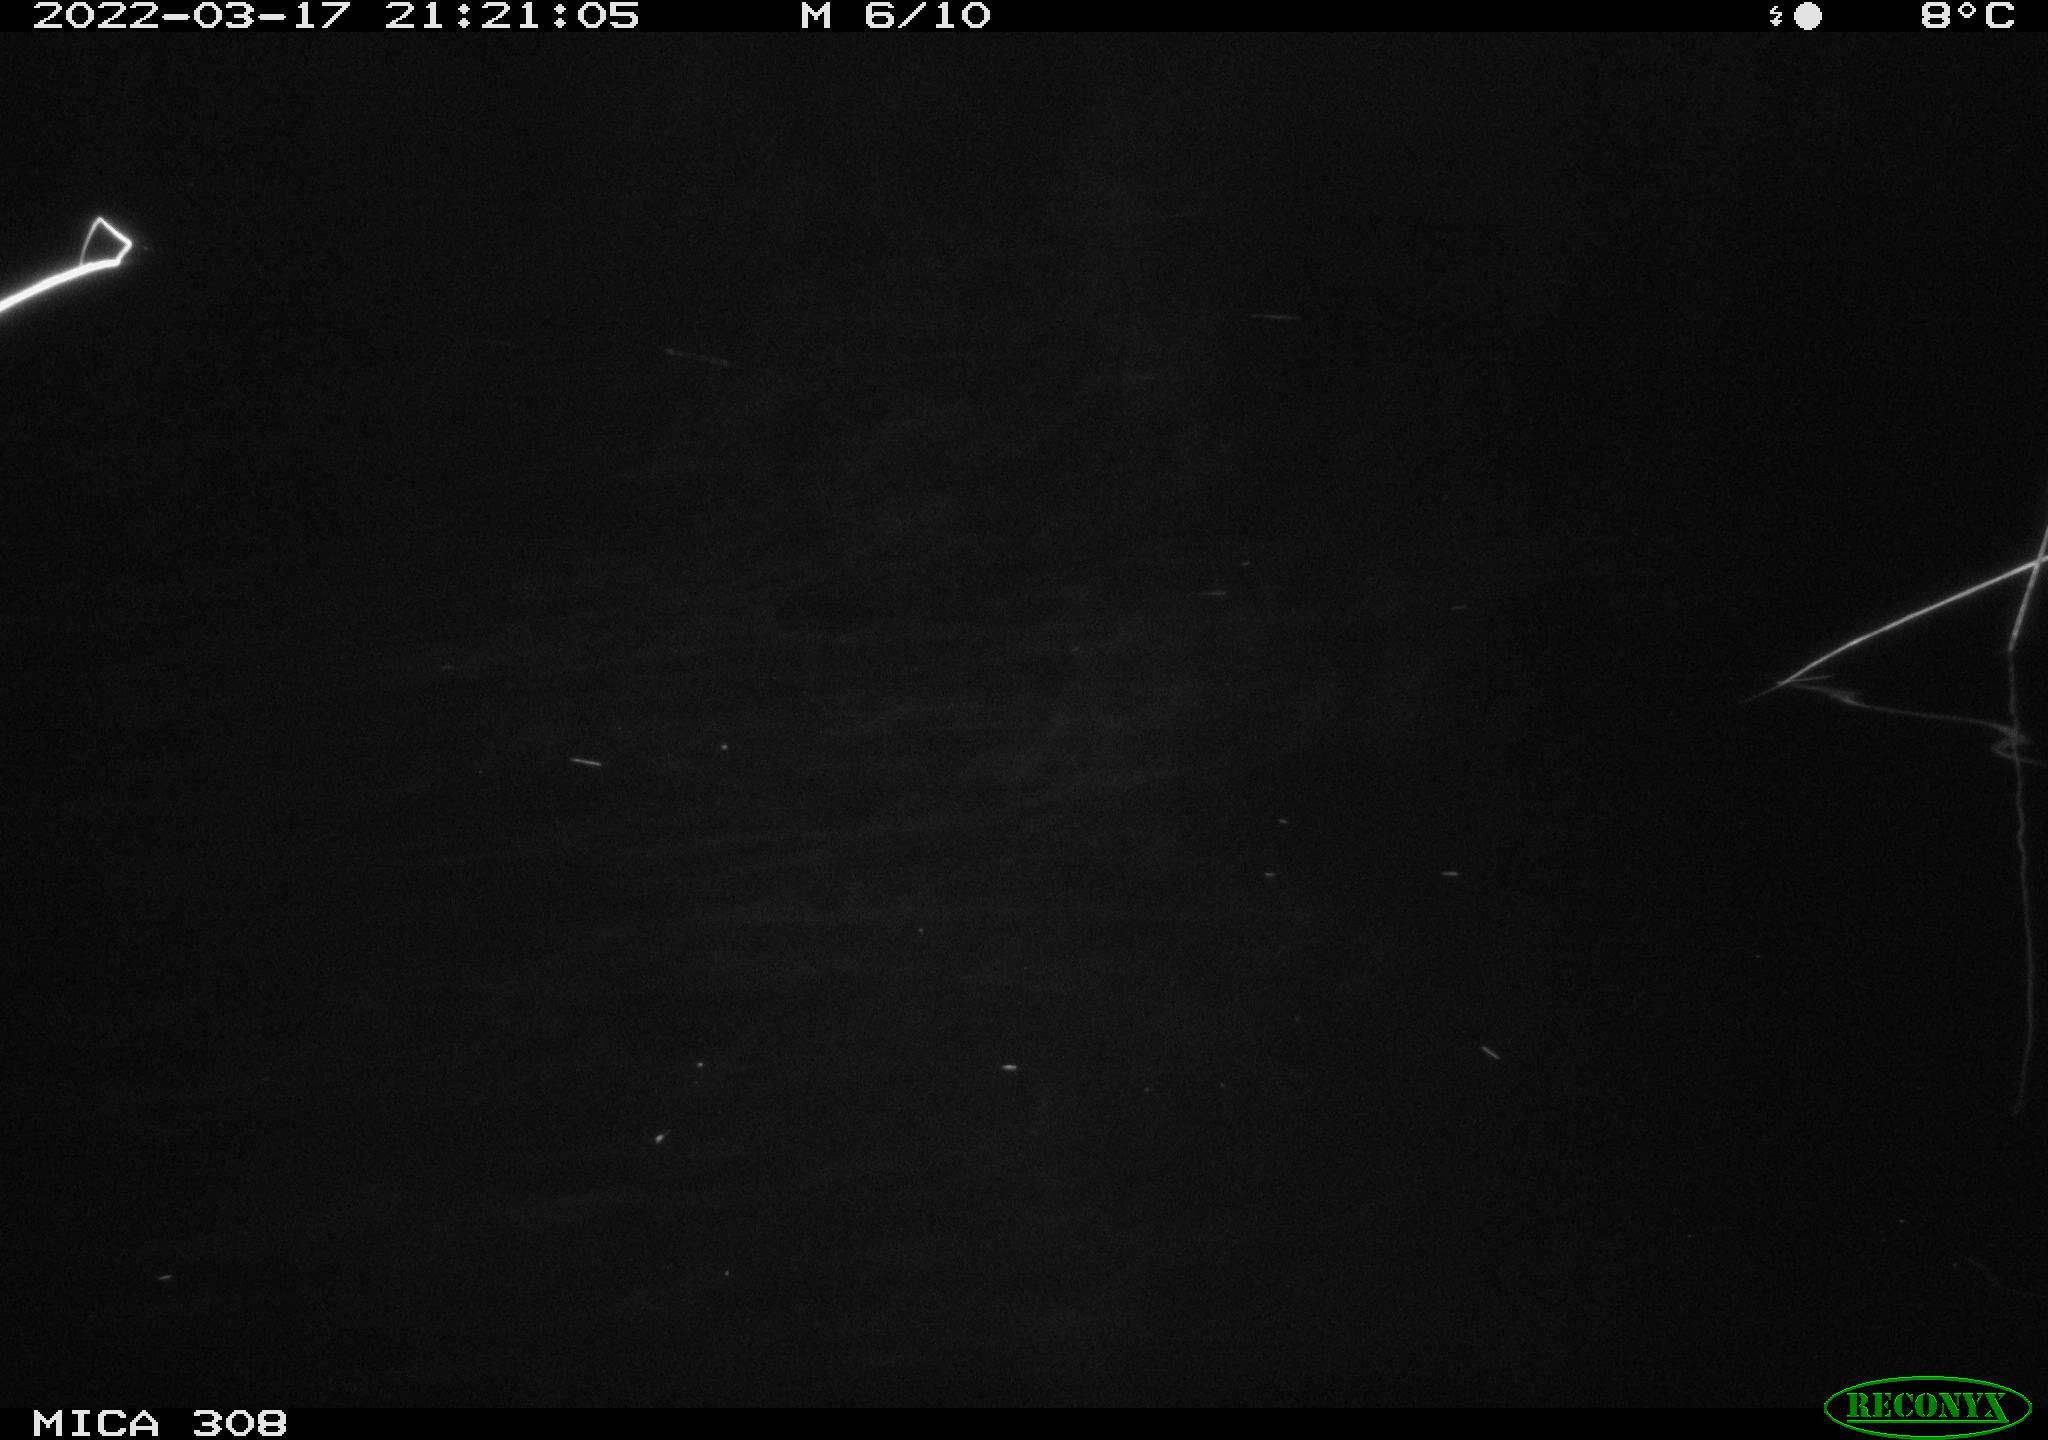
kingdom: Animalia
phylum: Chordata
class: Mammalia
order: Rodentia
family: Muridae
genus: Rattus
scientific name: Rattus norvegicus
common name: Brown rat
